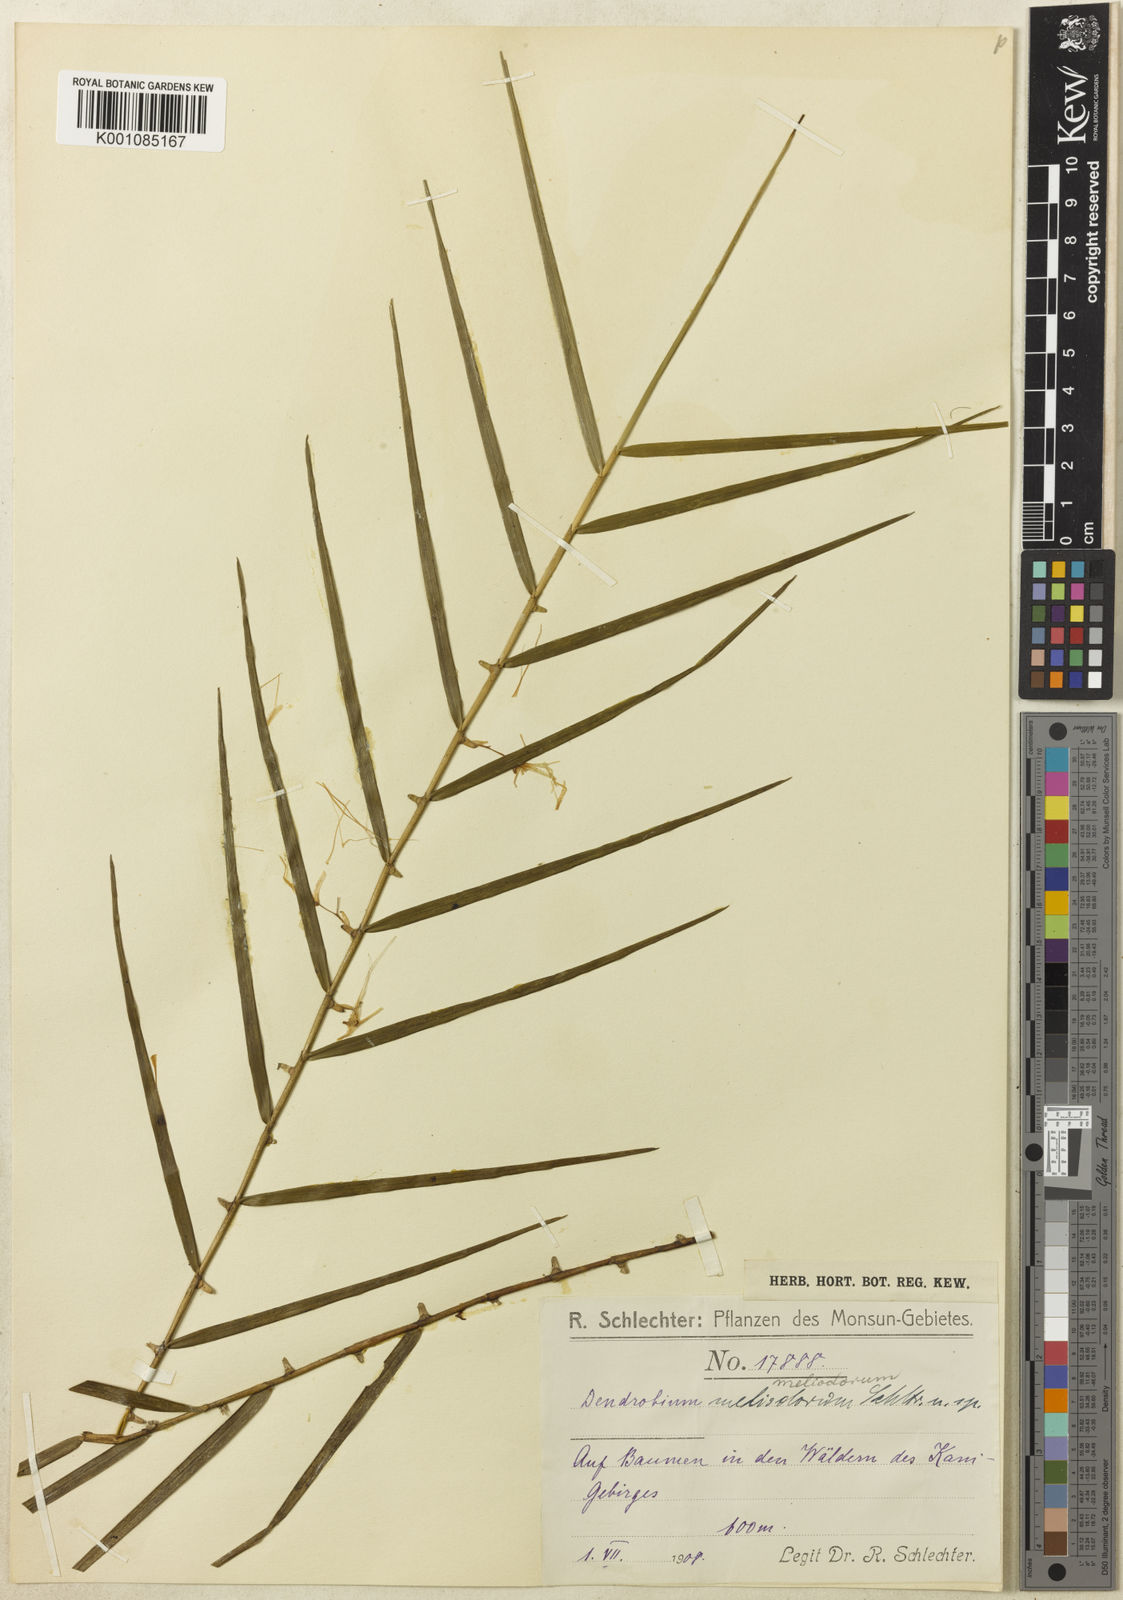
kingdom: Plantae
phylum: Tracheophyta
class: Liliopsida
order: Asparagales
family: Orchidaceae
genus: Dendrobium
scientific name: Dendrobium meliodorum
